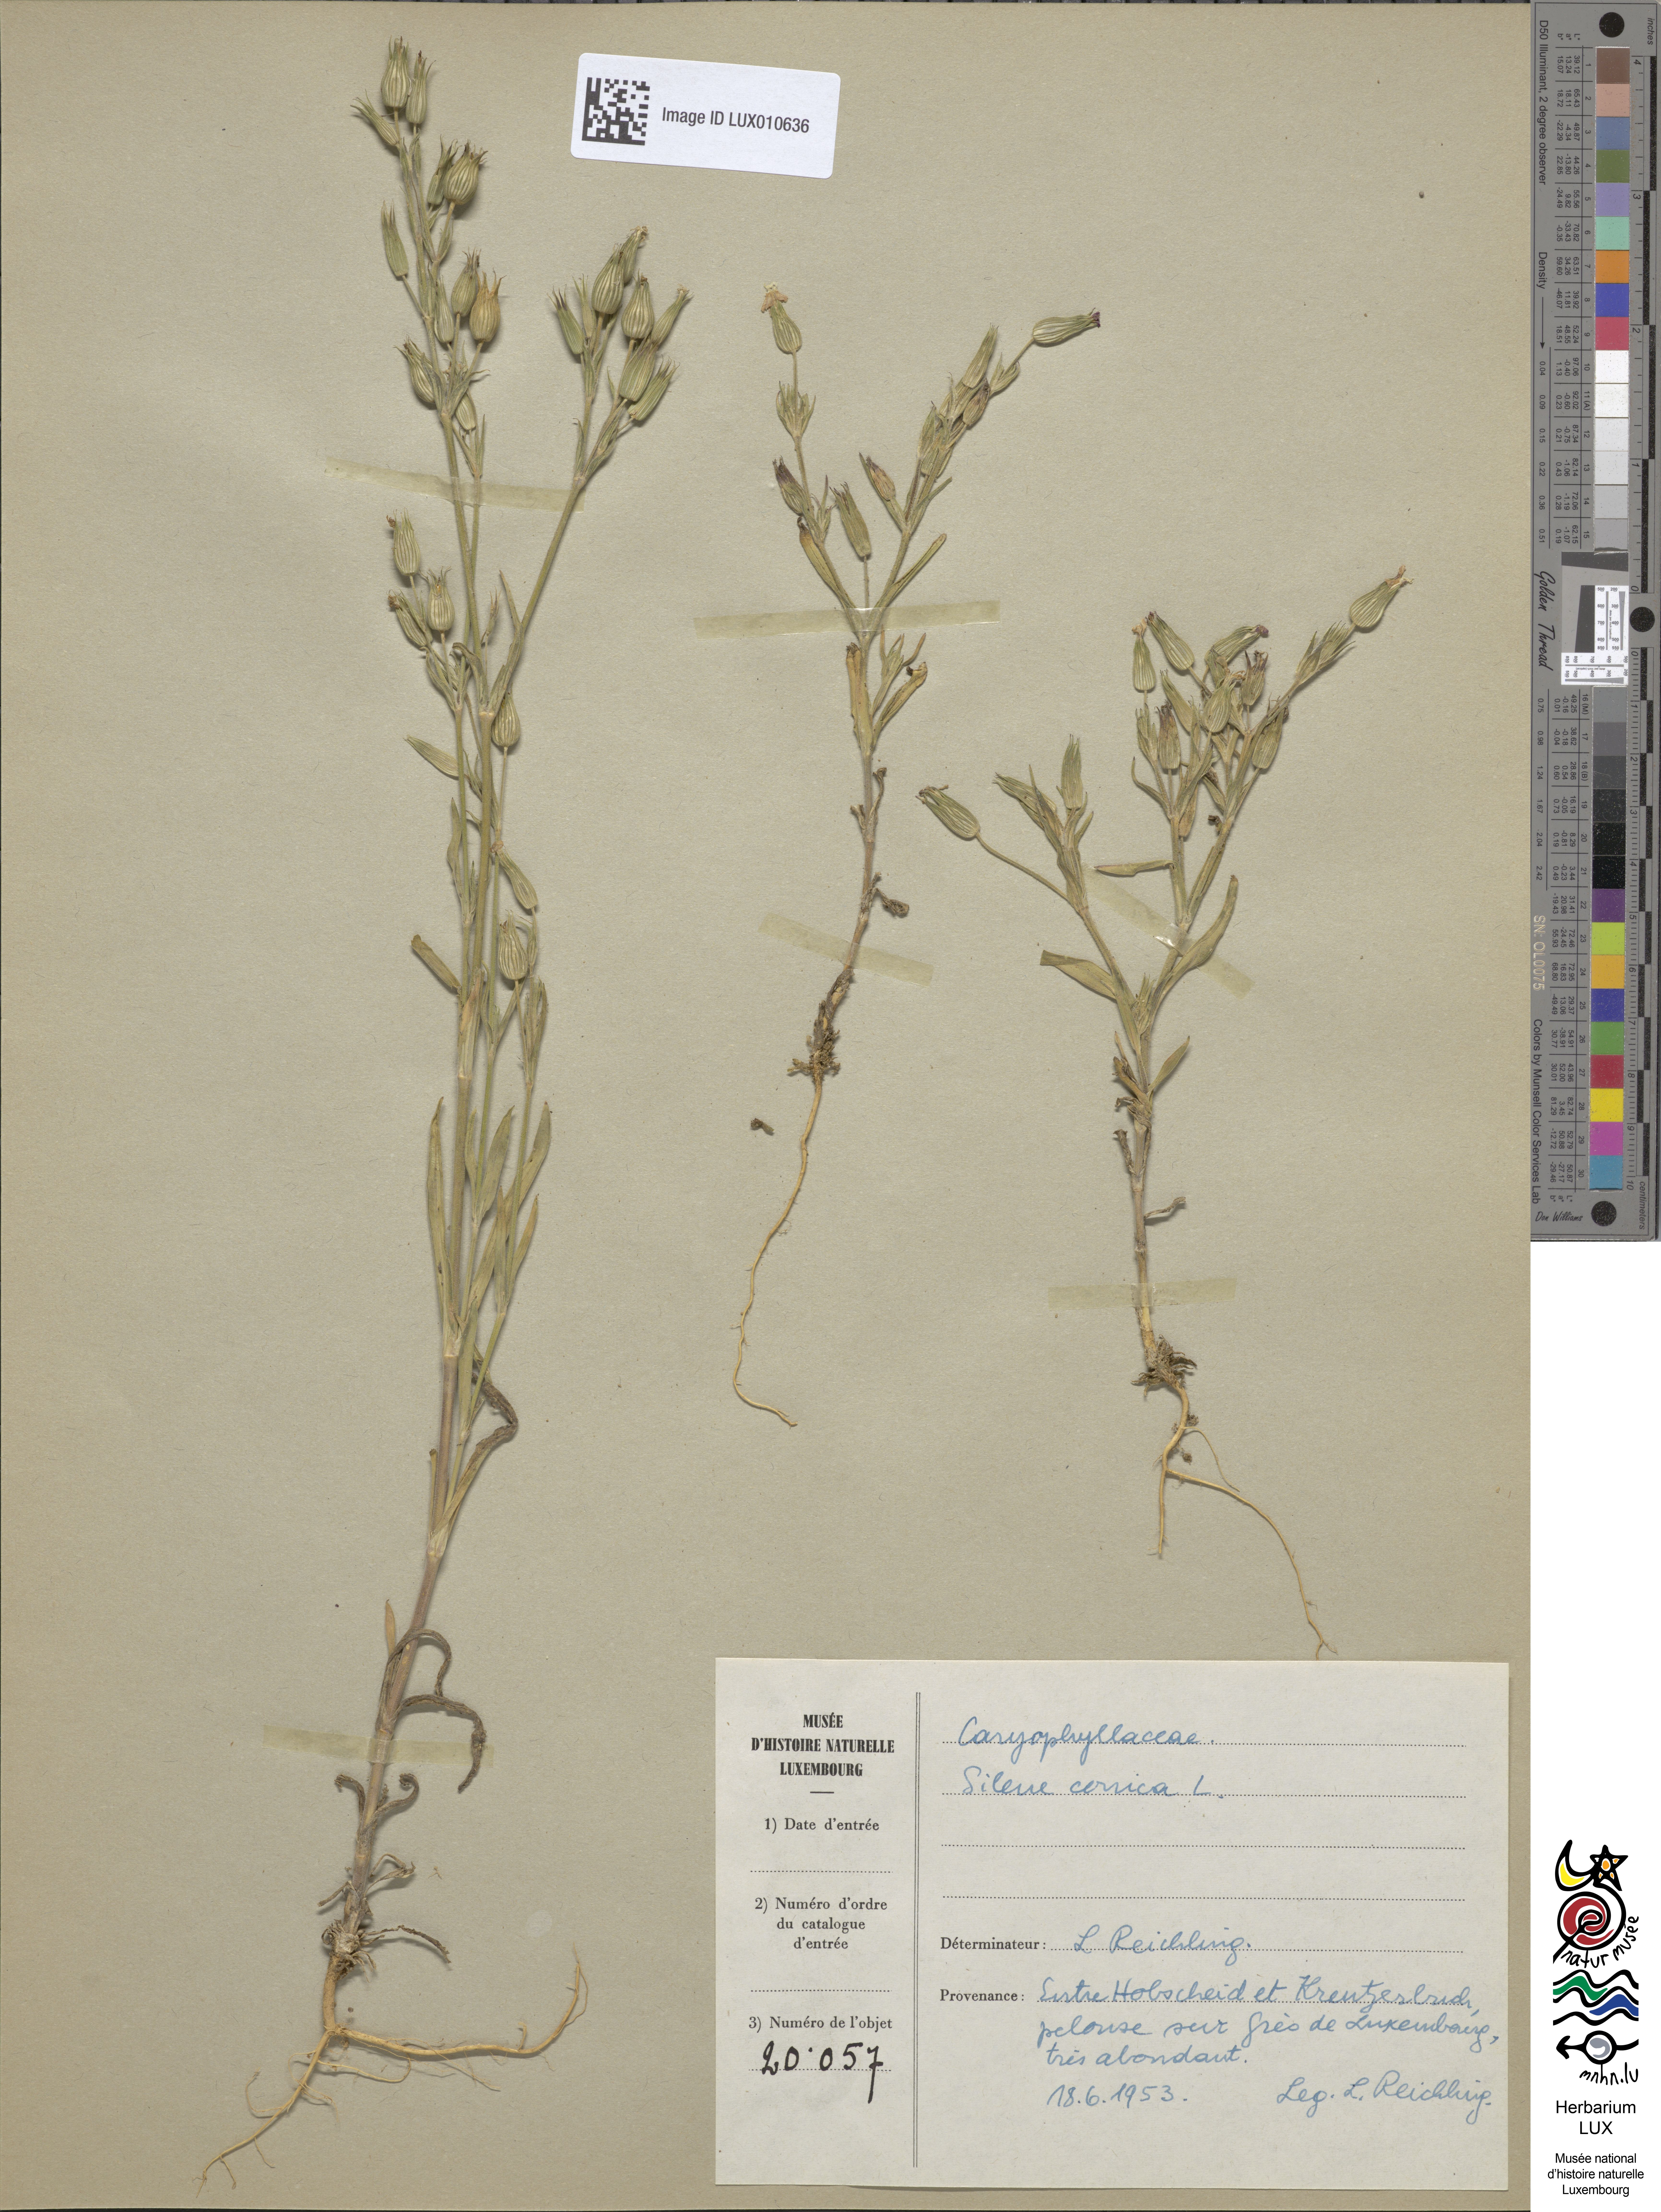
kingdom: Plantae
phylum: Tracheophyta
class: Magnoliopsida
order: Caryophyllales
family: Caryophyllaceae
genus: Silene
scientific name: Silene conica
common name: Sand catchfly
